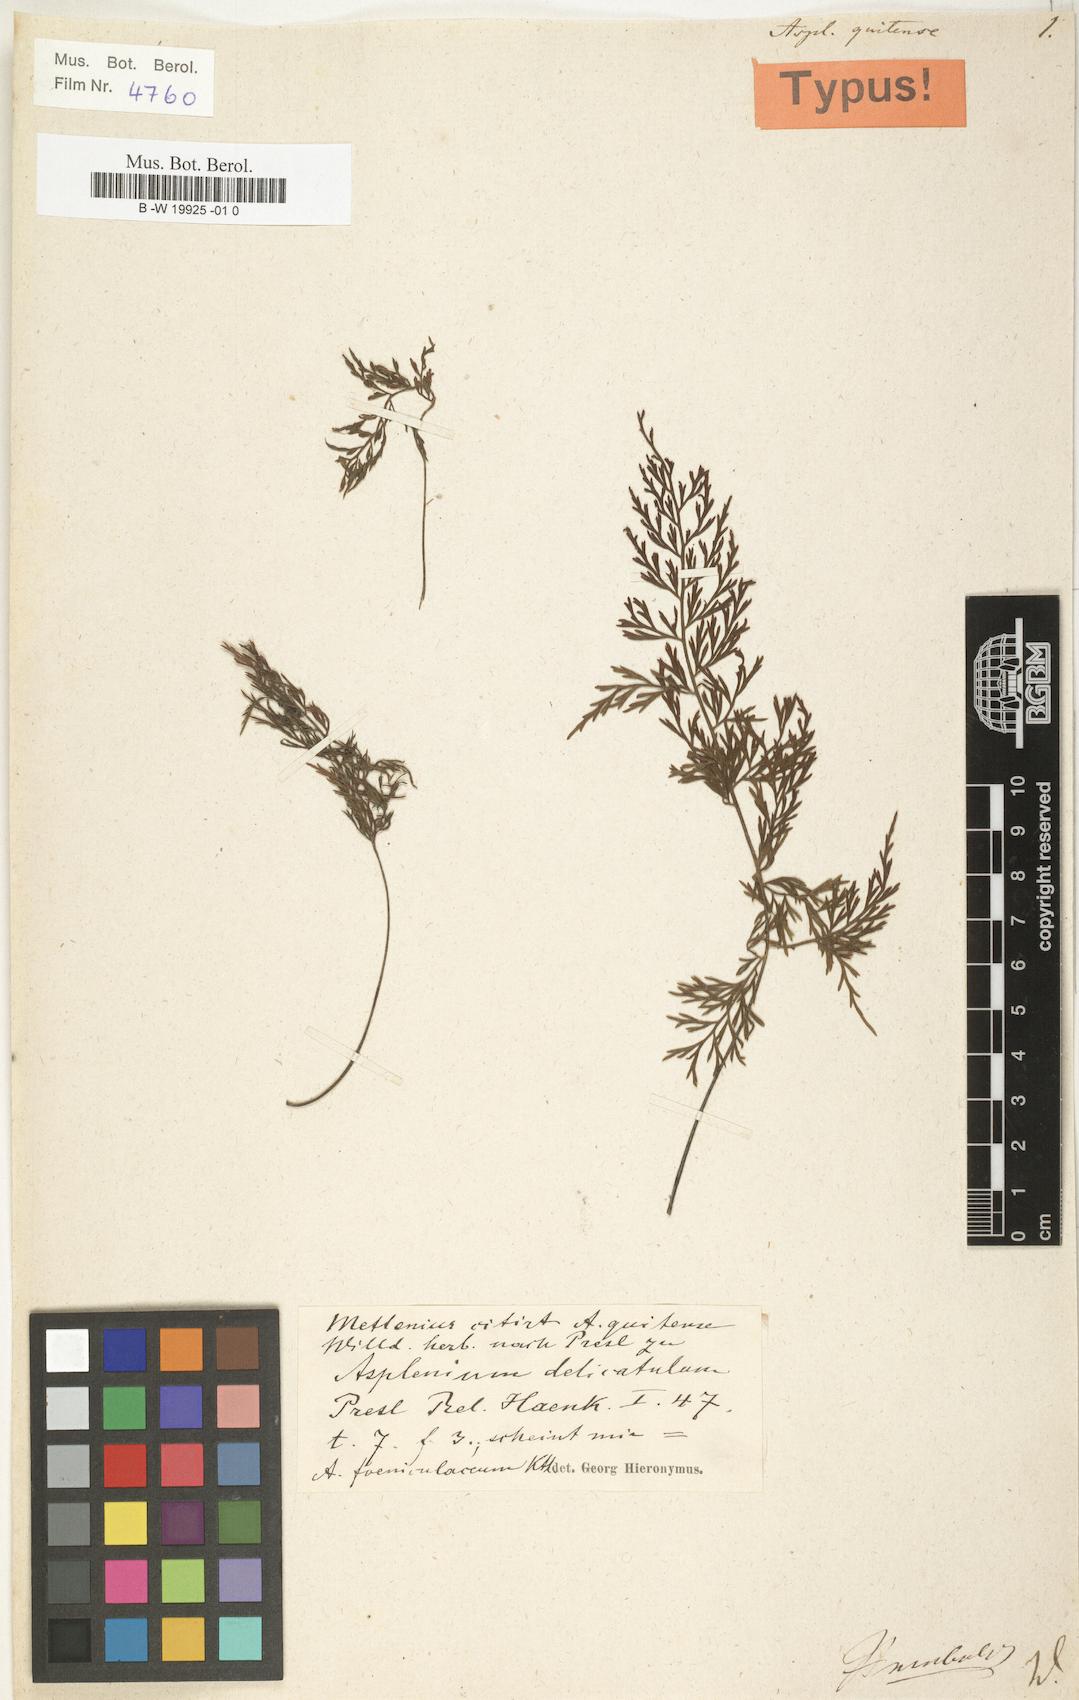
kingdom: Plantae
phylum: Tracheophyta
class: Polypodiopsida
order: Polypodiales
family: Aspleniaceae
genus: Asplenium
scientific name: Asplenium quitense
